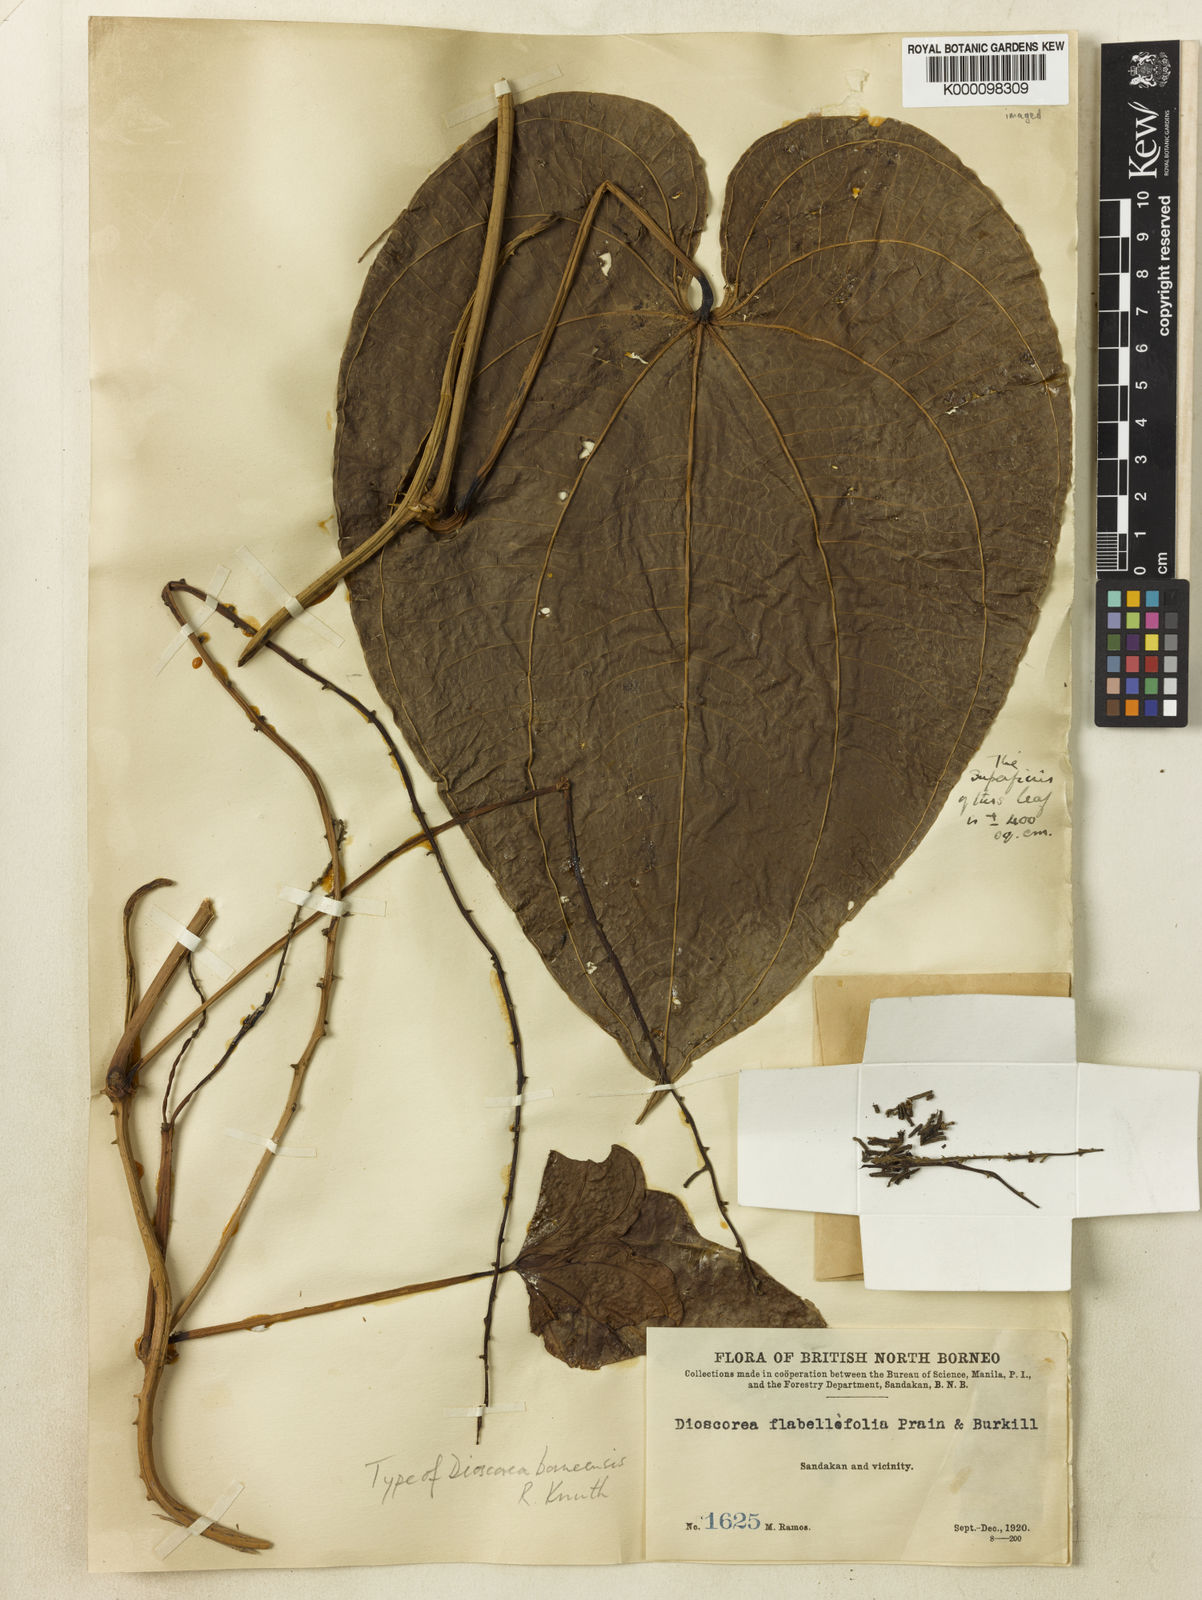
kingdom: Plantae
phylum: Tracheophyta
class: Liliopsida
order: Dioscoreales
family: Dioscoreaceae
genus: Dioscorea
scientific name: Dioscorea piscatorum
